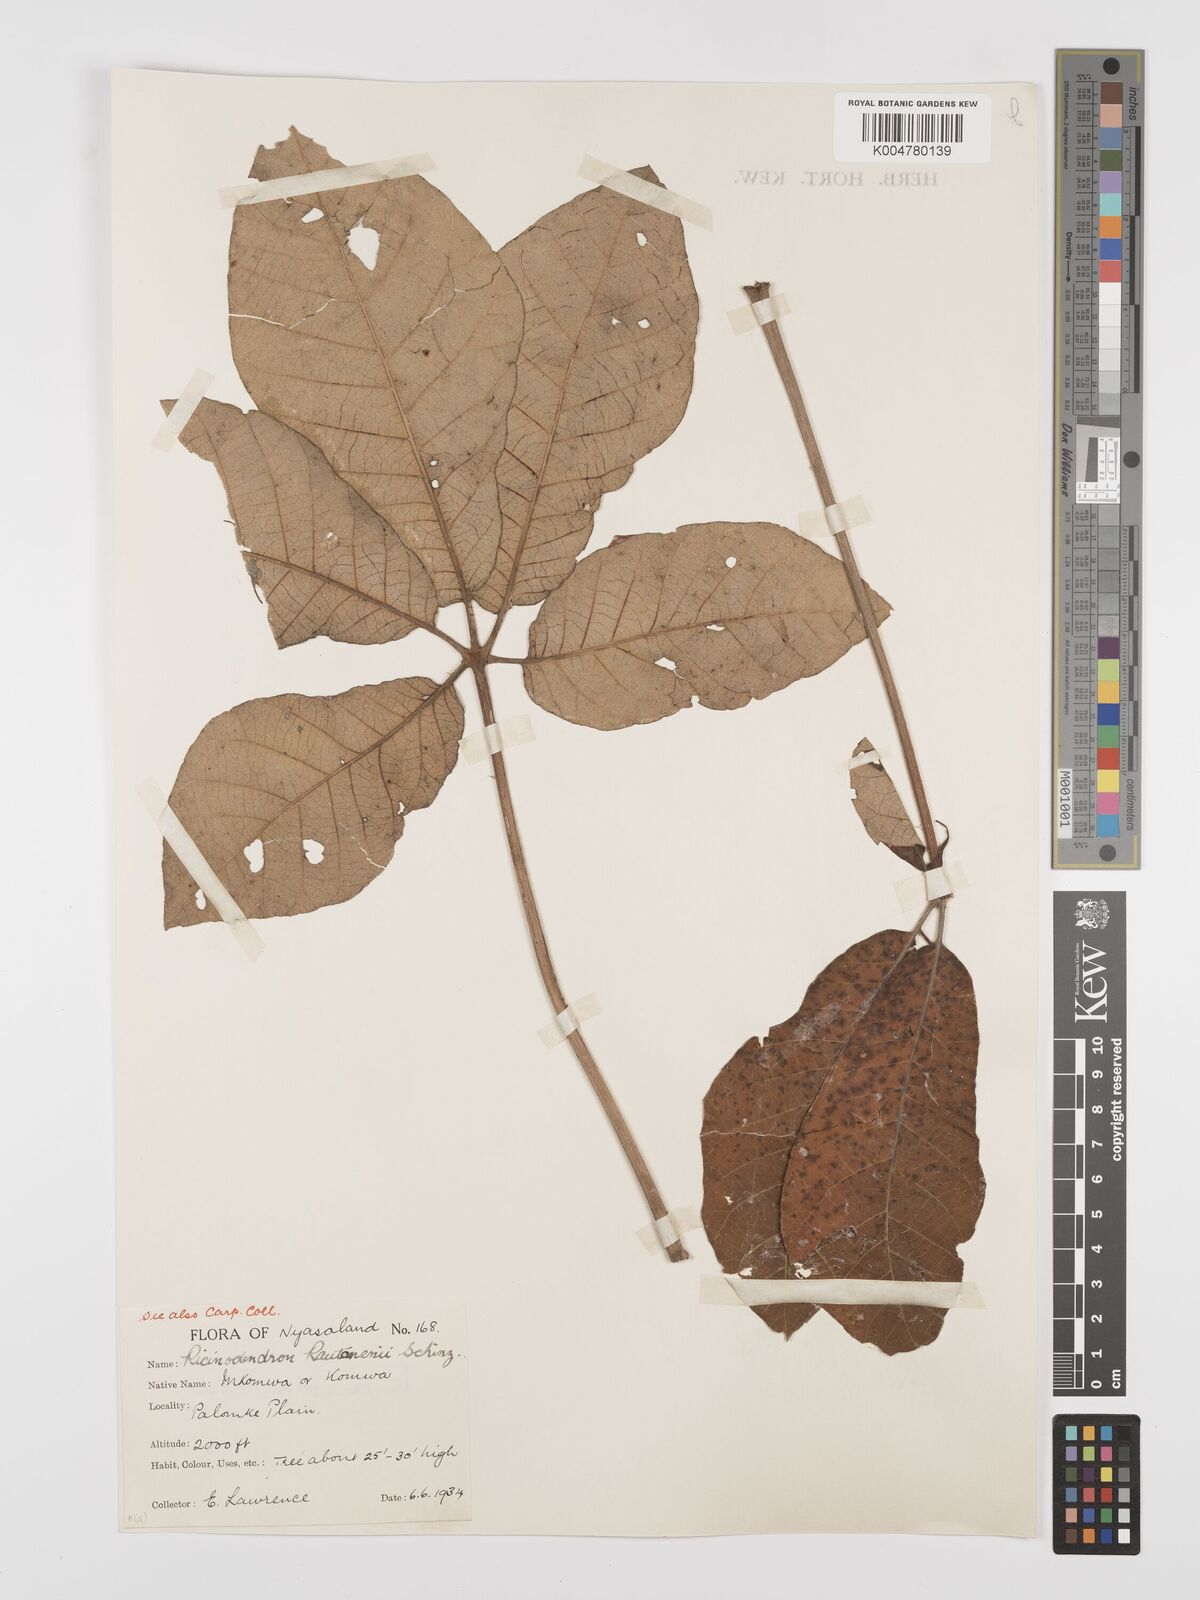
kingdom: Plantae
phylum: Tracheophyta
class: Magnoliopsida
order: Malpighiales
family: Euphorbiaceae
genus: Schinziophyton
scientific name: Schinziophyton rautanenii
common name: Manketti
